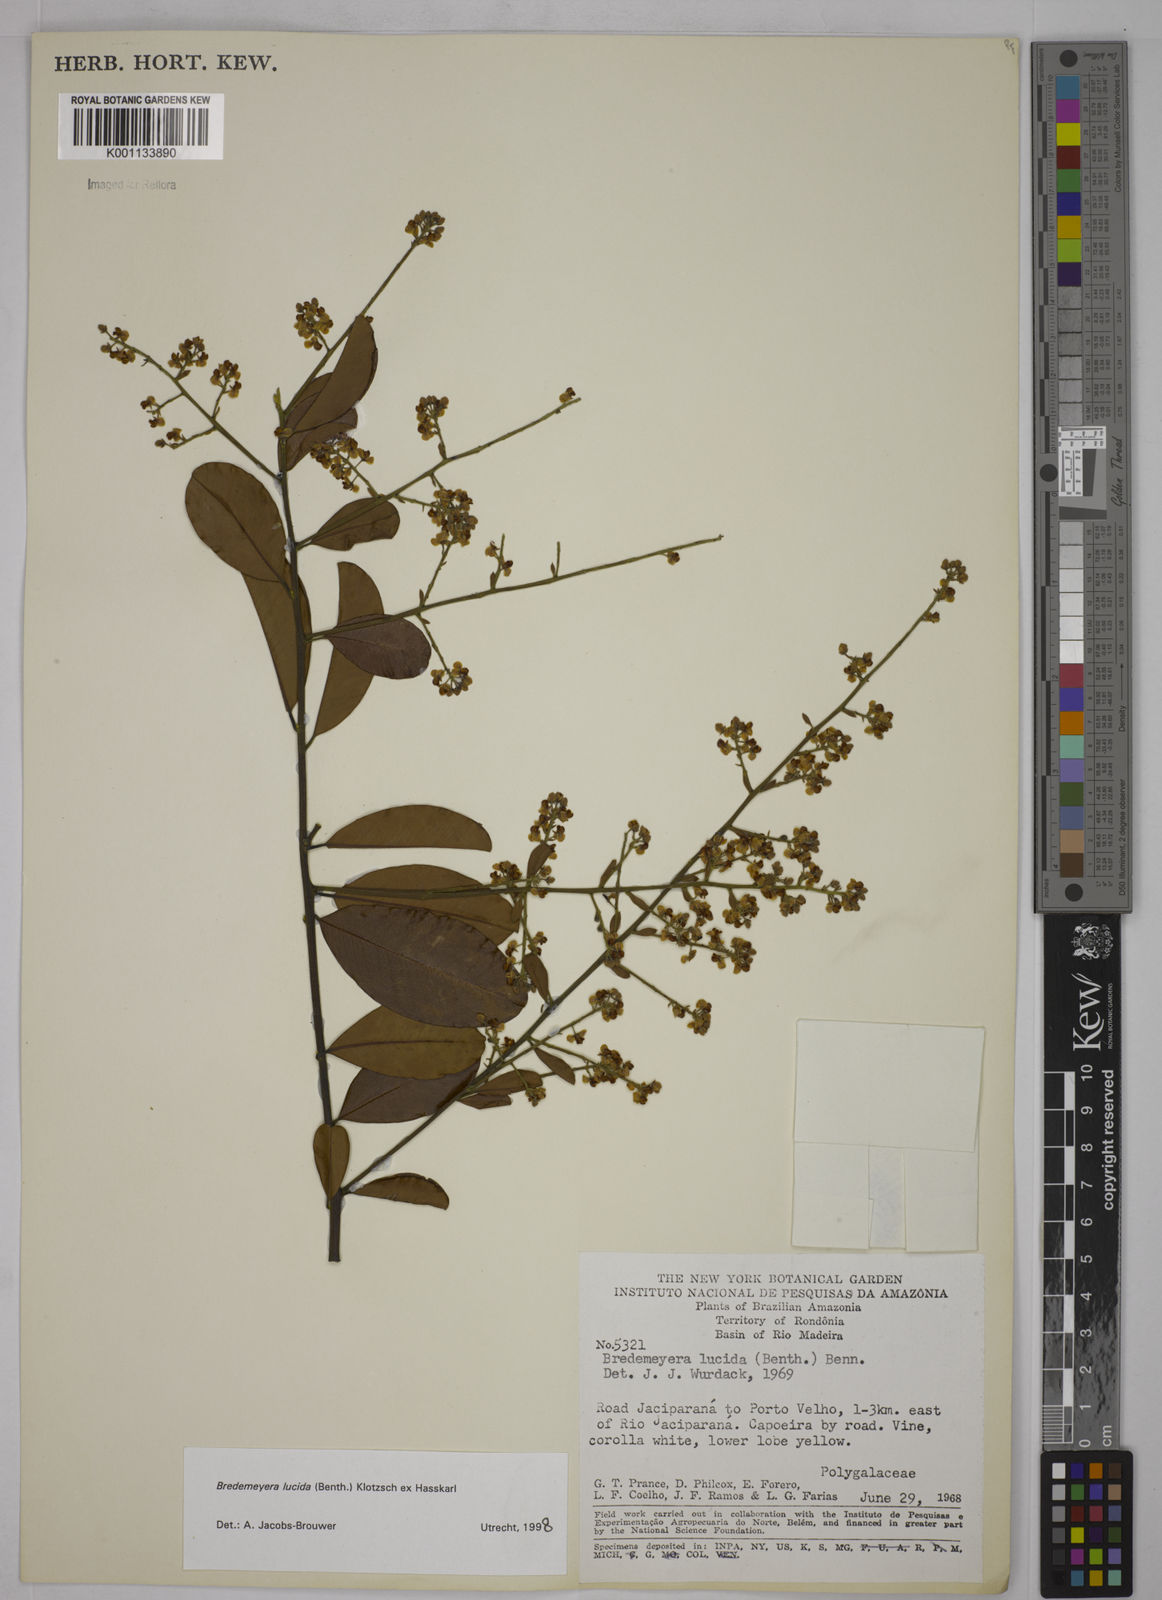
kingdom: Plantae
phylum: Tracheophyta
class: Magnoliopsida
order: Fabales
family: Polygalaceae
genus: Bredemeyera
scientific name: Bredemeyera lucida
